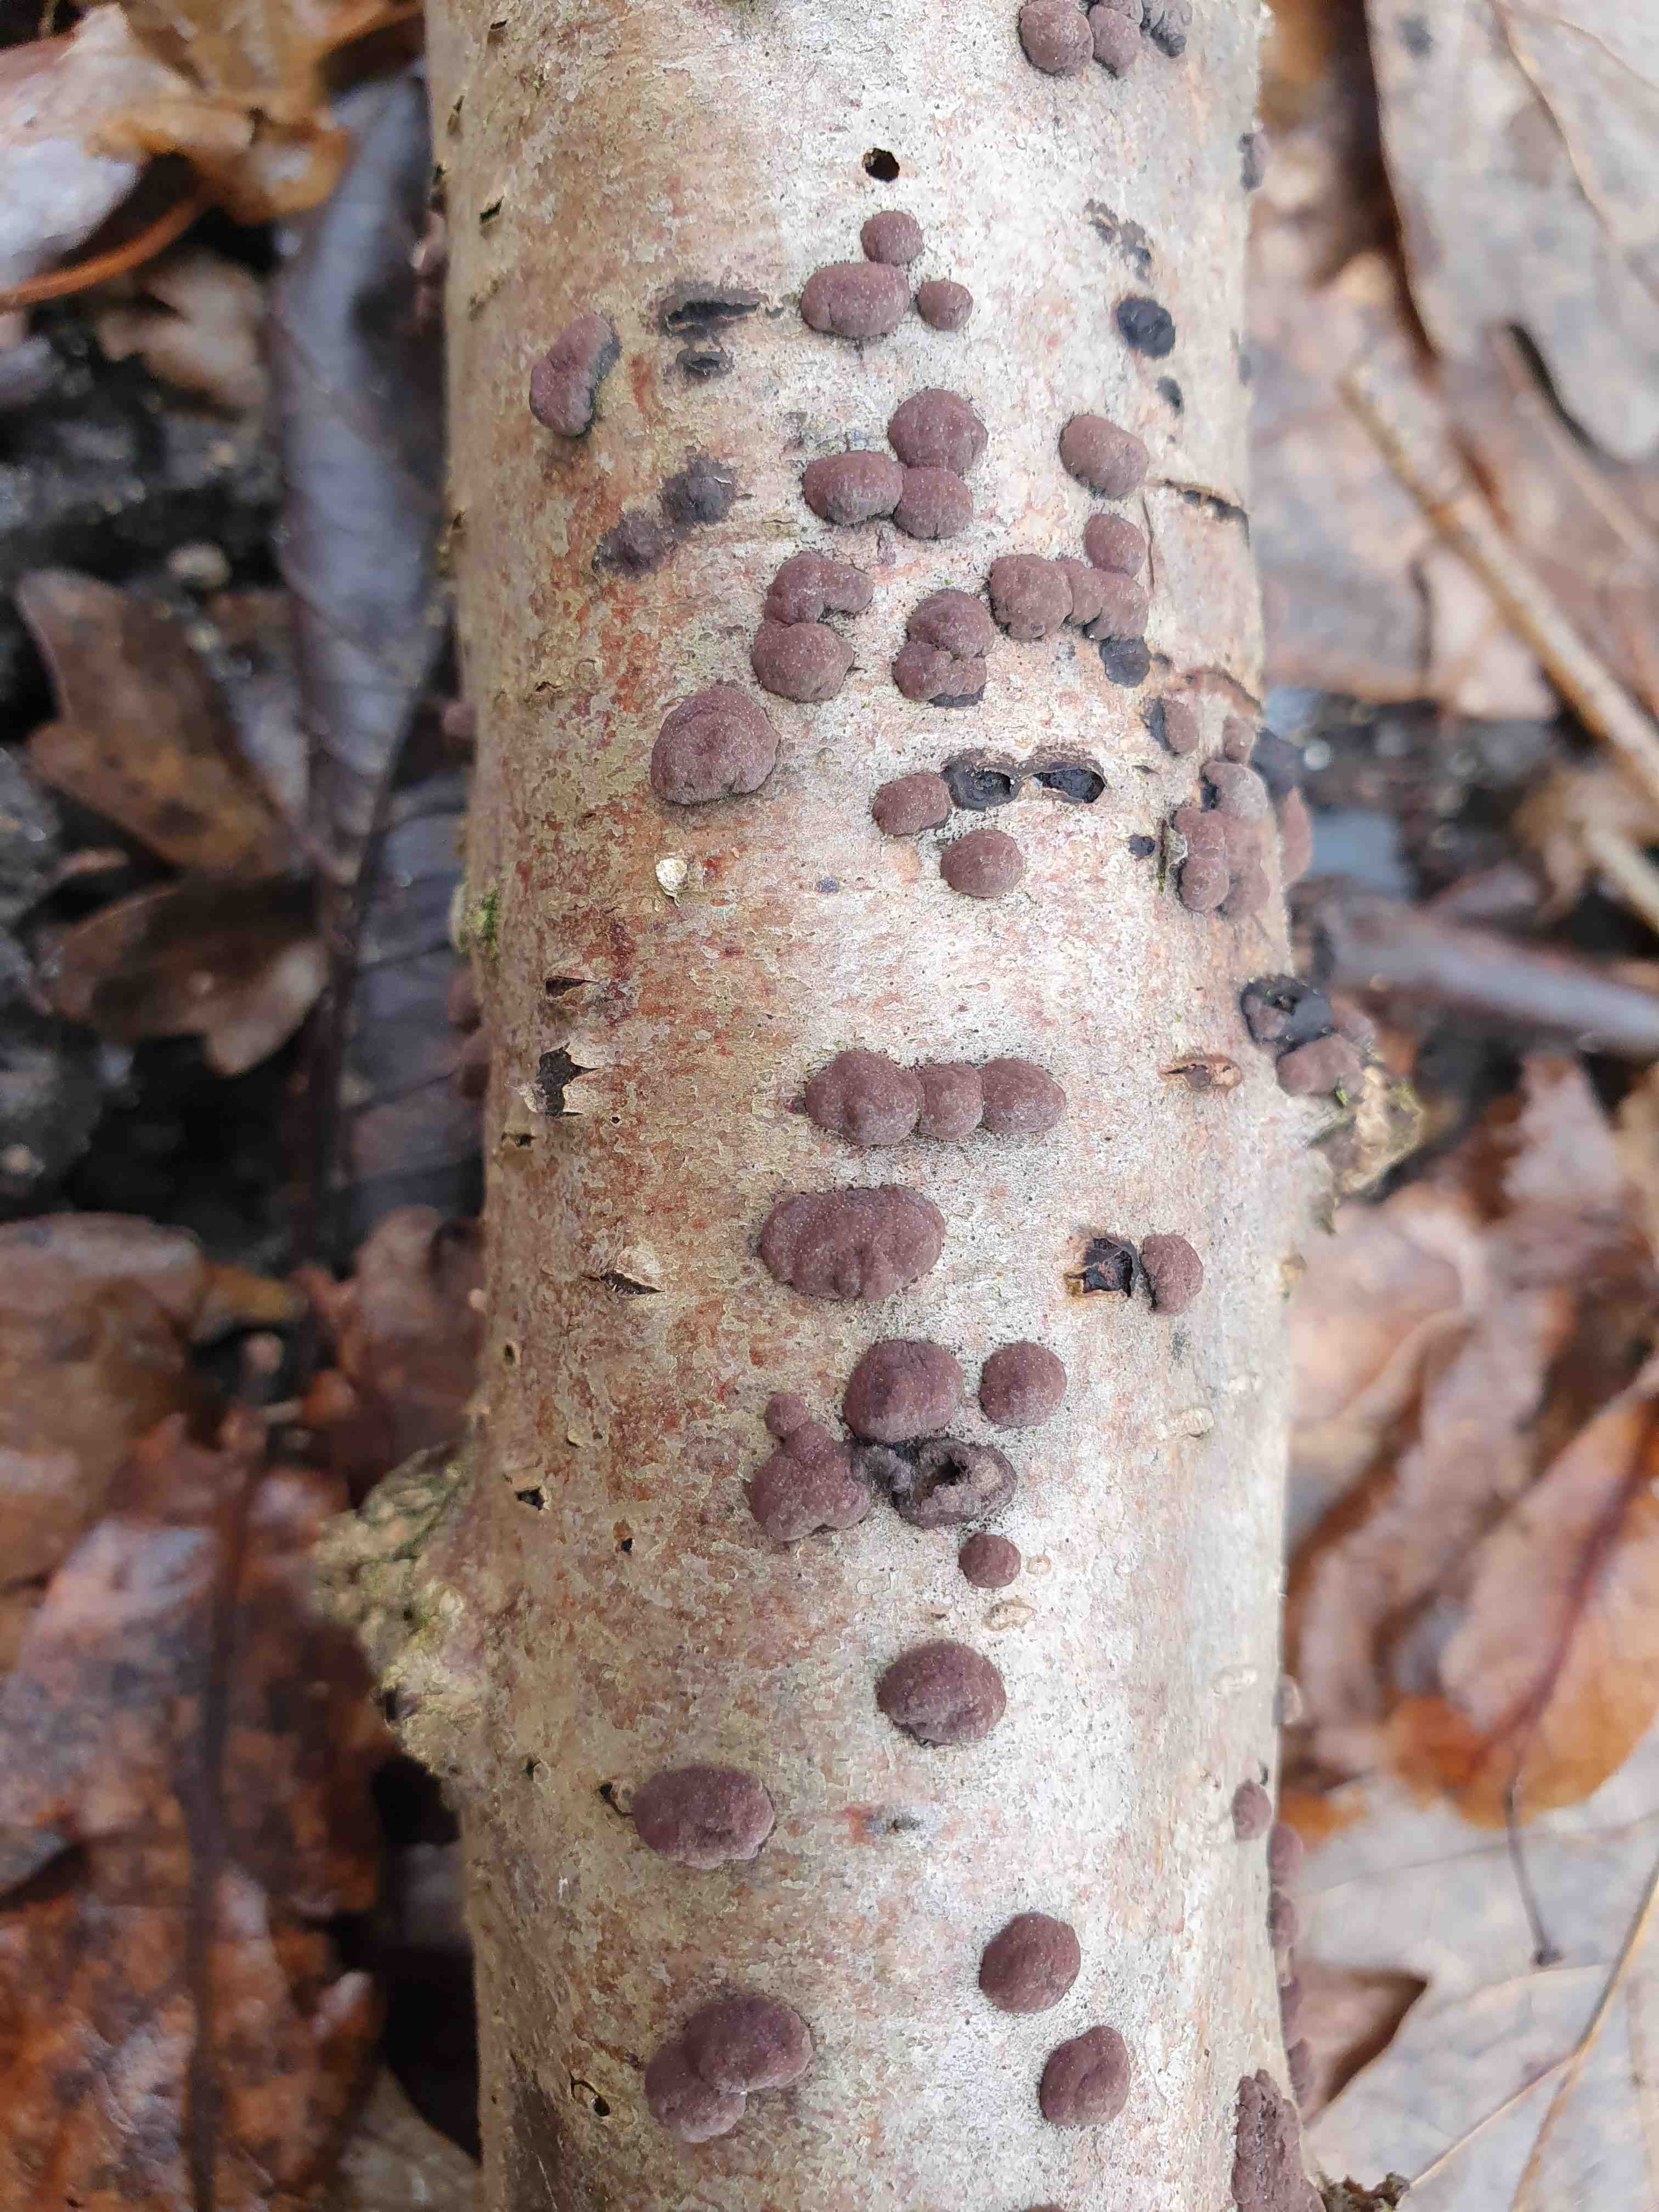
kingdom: Fungi
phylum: Ascomycota
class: Sordariomycetes
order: Xylariales
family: Hypoxylaceae
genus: Hypoxylon
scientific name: Hypoxylon fuscum
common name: kegleformet kulbær
